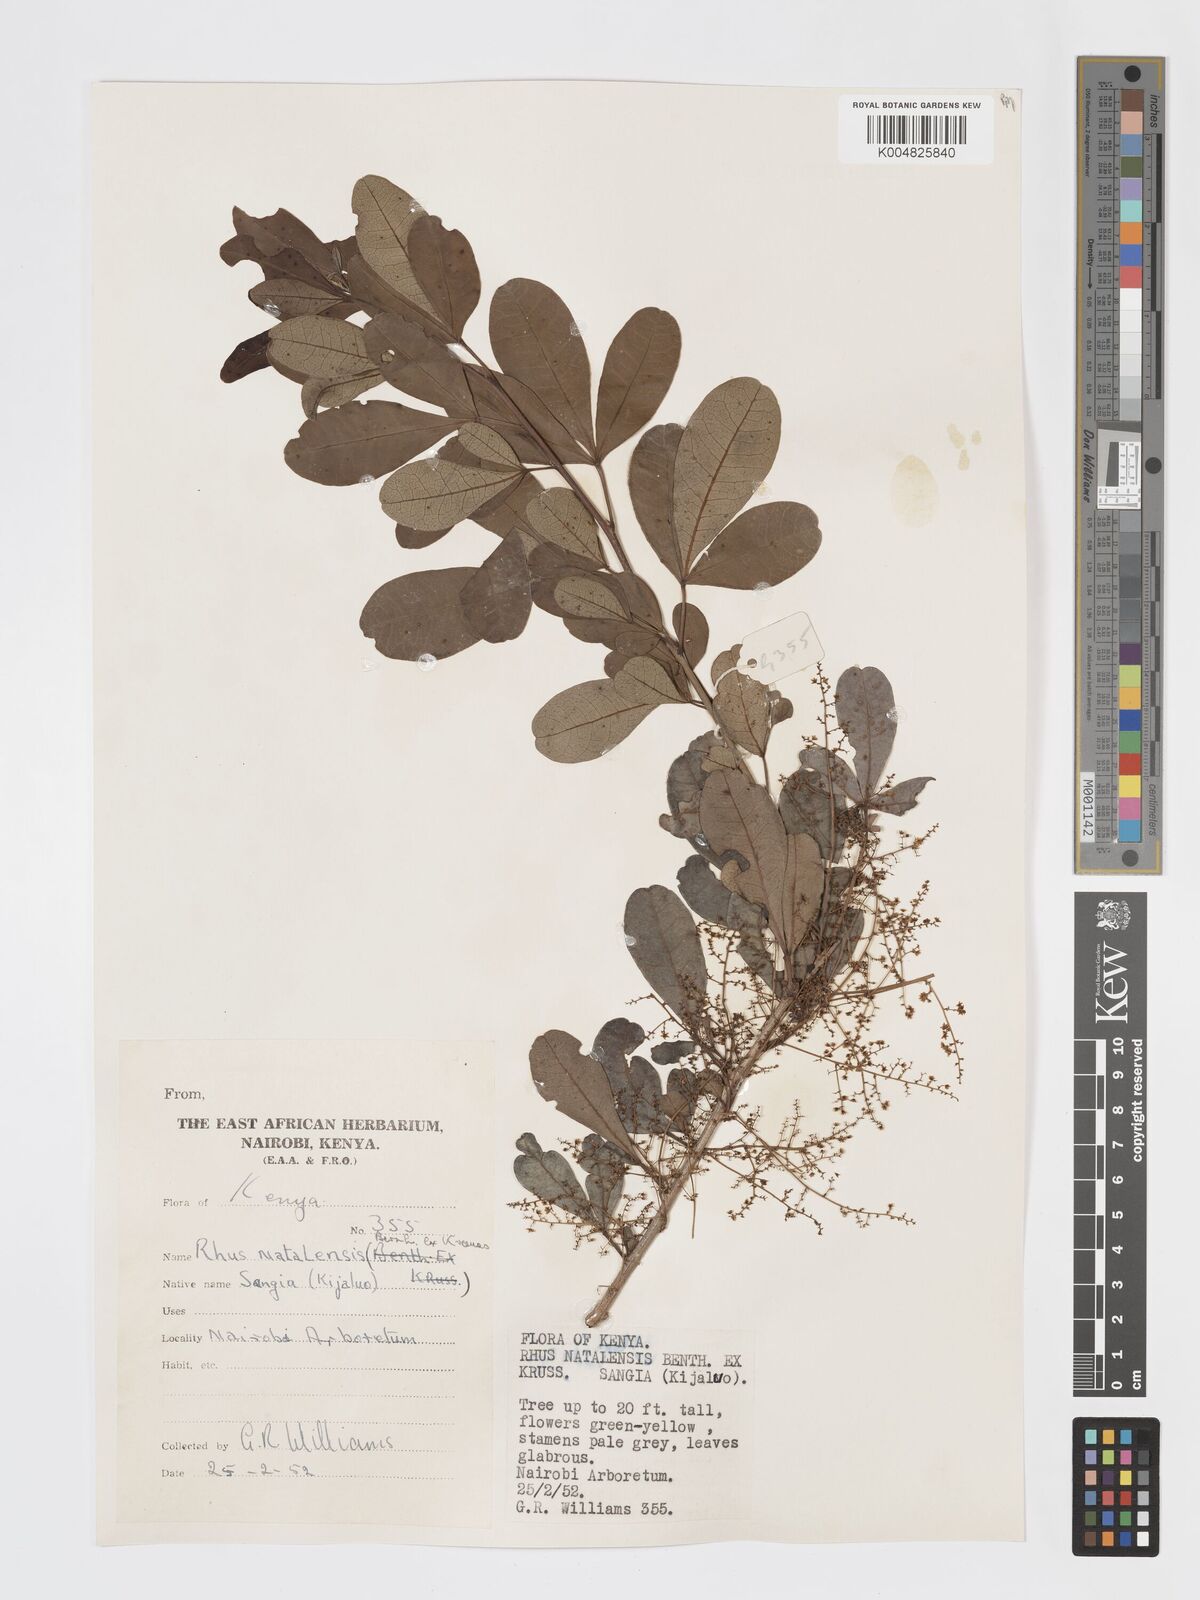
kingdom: Plantae
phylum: Tracheophyta
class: Magnoliopsida
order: Sapindales
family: Anacardiaceae
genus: Searsia
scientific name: Searsia natalensis
